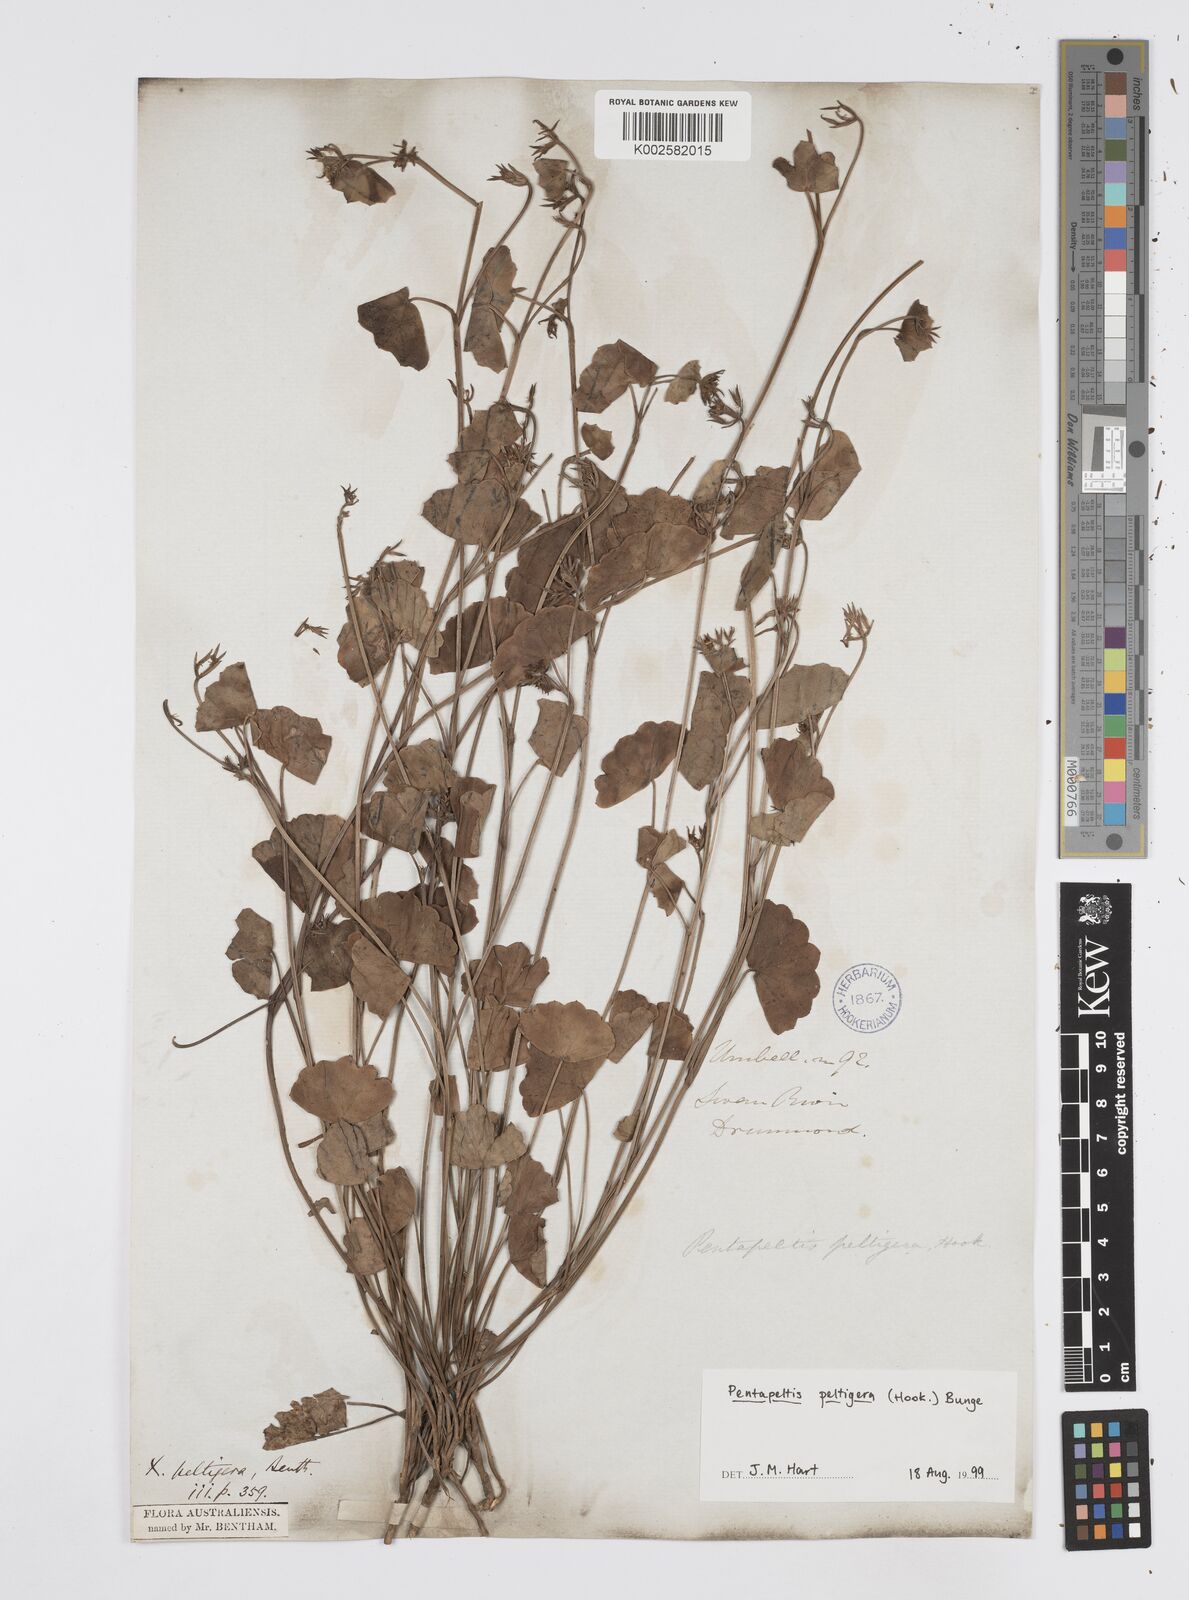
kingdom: Plantae
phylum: Tracheophyta
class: Magnoliopsida
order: Apiales
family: Apiaceae
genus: Pentapeltis
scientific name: Pentapeltis peltigera
